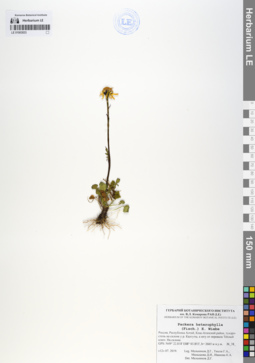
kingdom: Plantae
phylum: Tracheophyta
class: Magnoliopsida
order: Asterales
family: Asteraceae
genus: Packera
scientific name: Packera heterophylla
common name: Arctic butterweed
